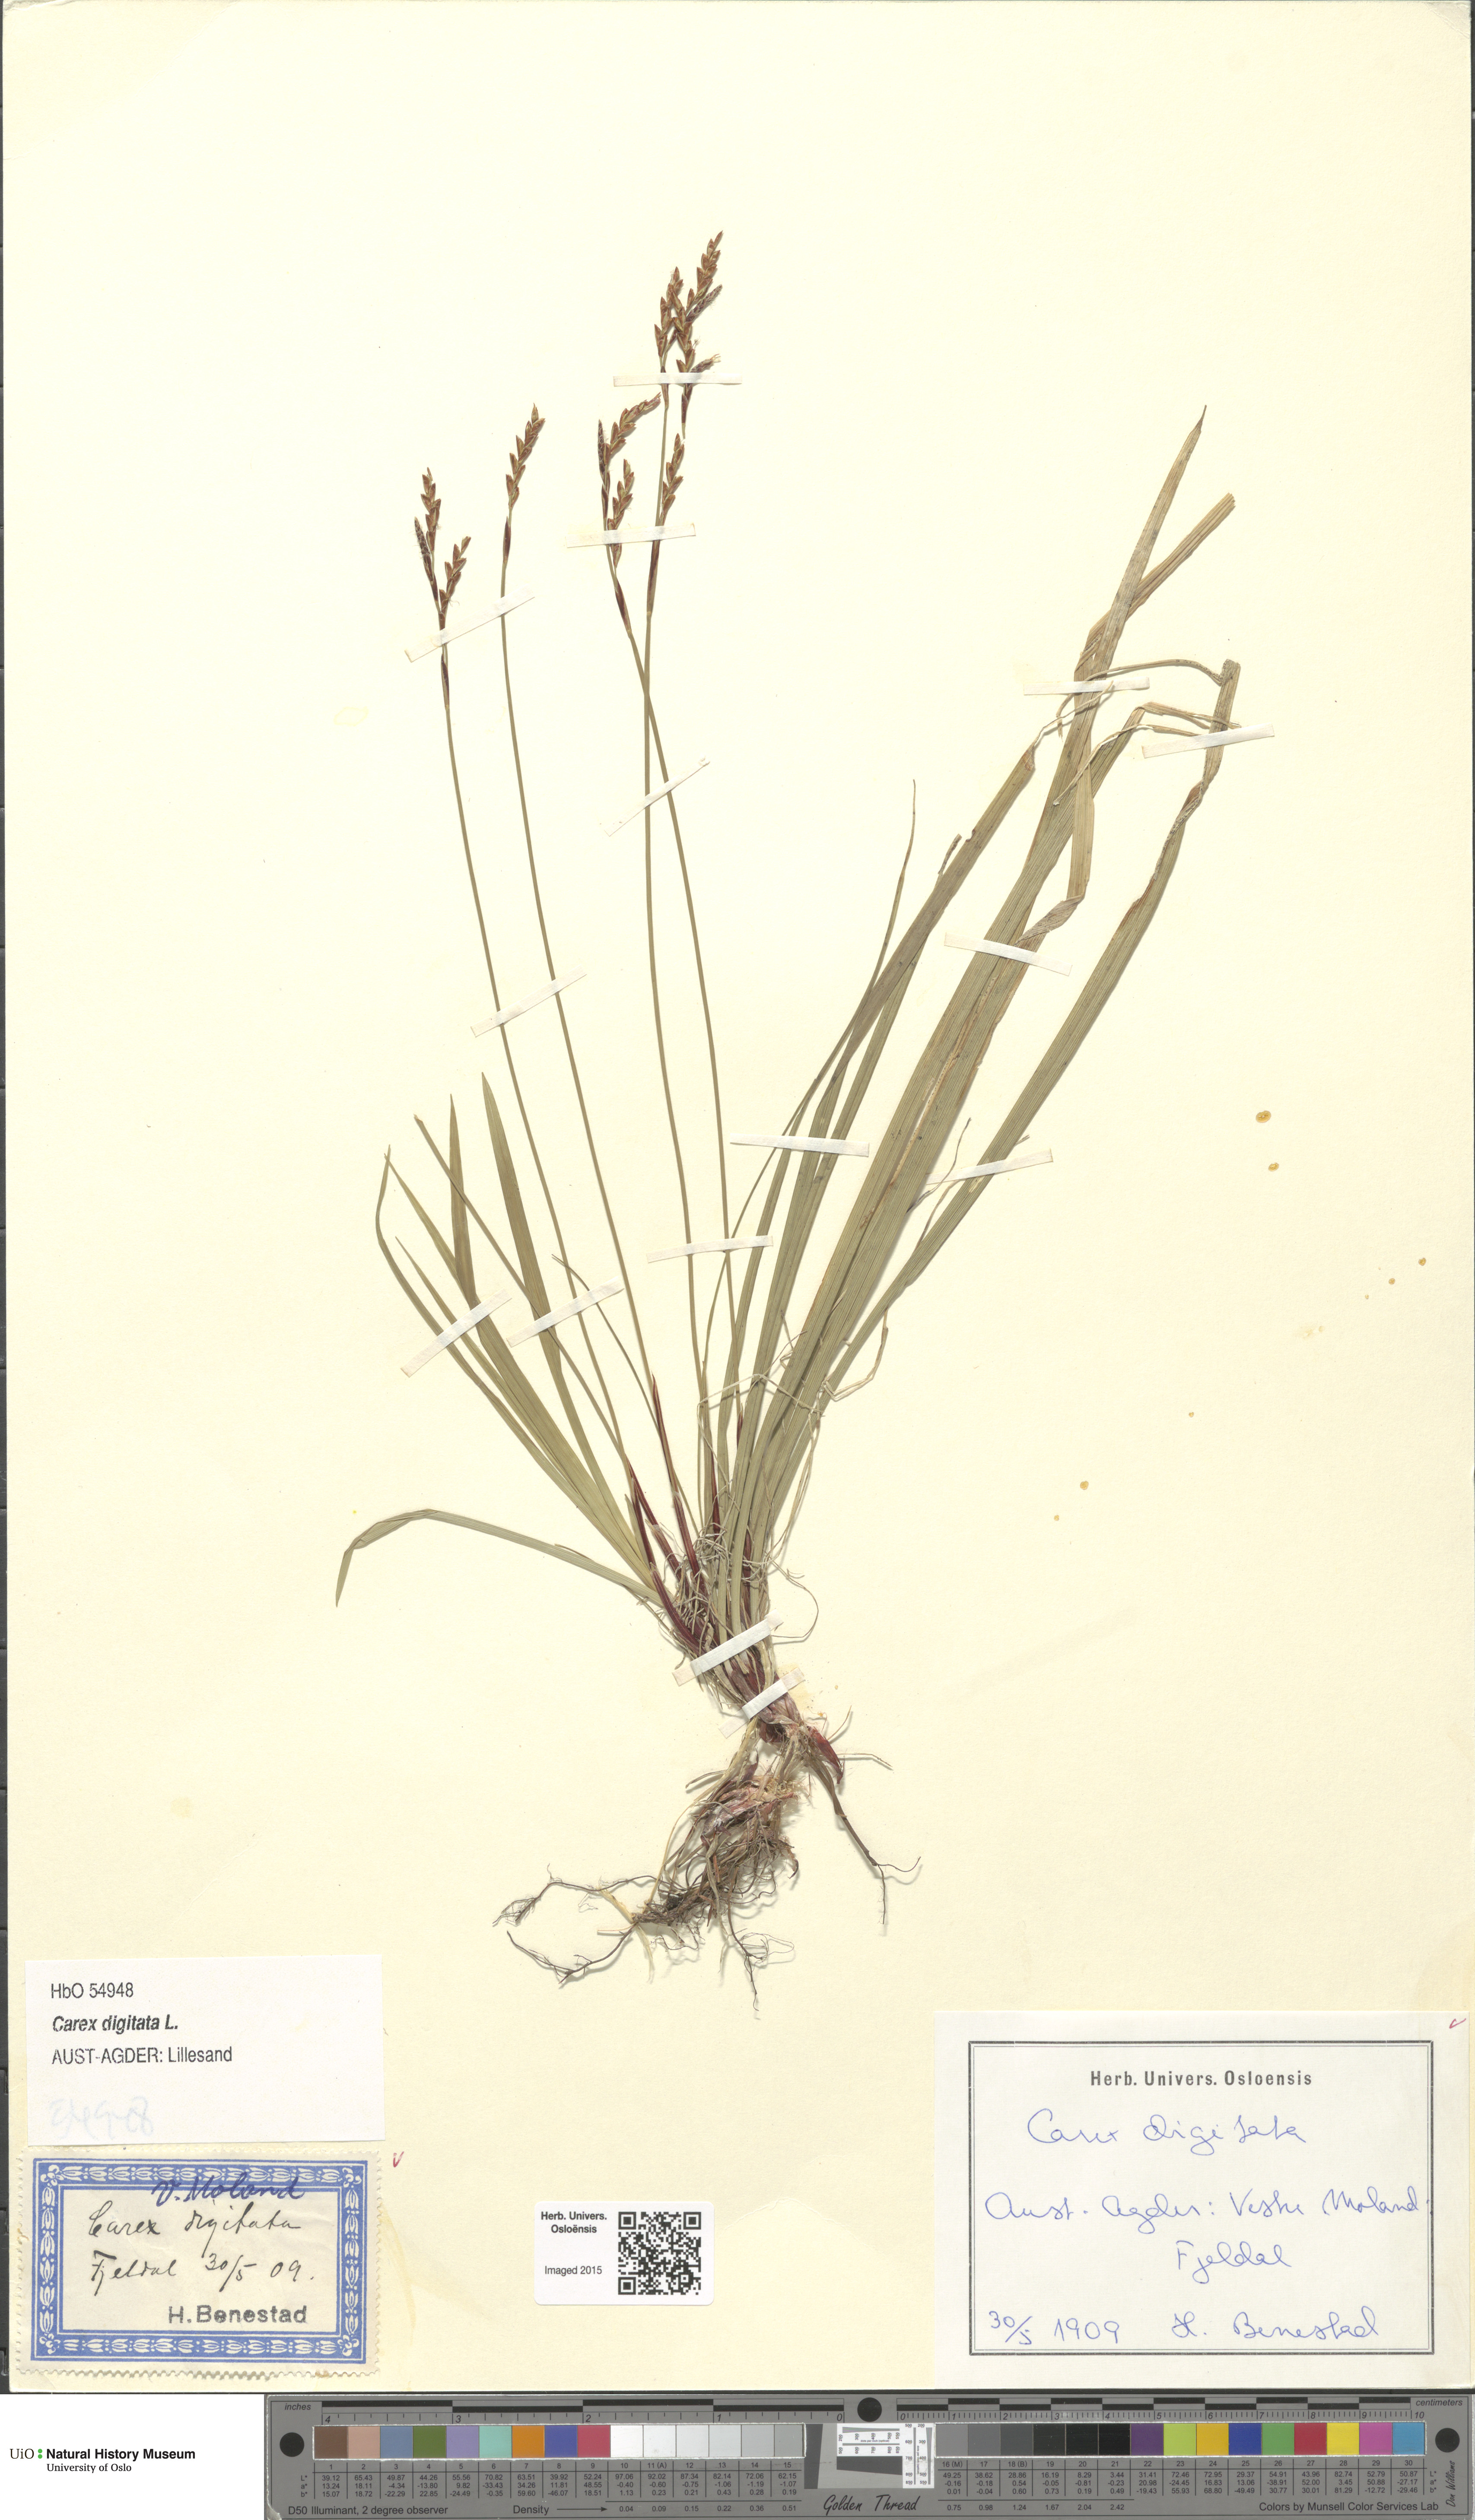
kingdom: Plantae
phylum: Tracheophyta
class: Liliopsida
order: Poales
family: Cyperaceae
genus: Carex
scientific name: Carex digitata
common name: Fingered sedge
